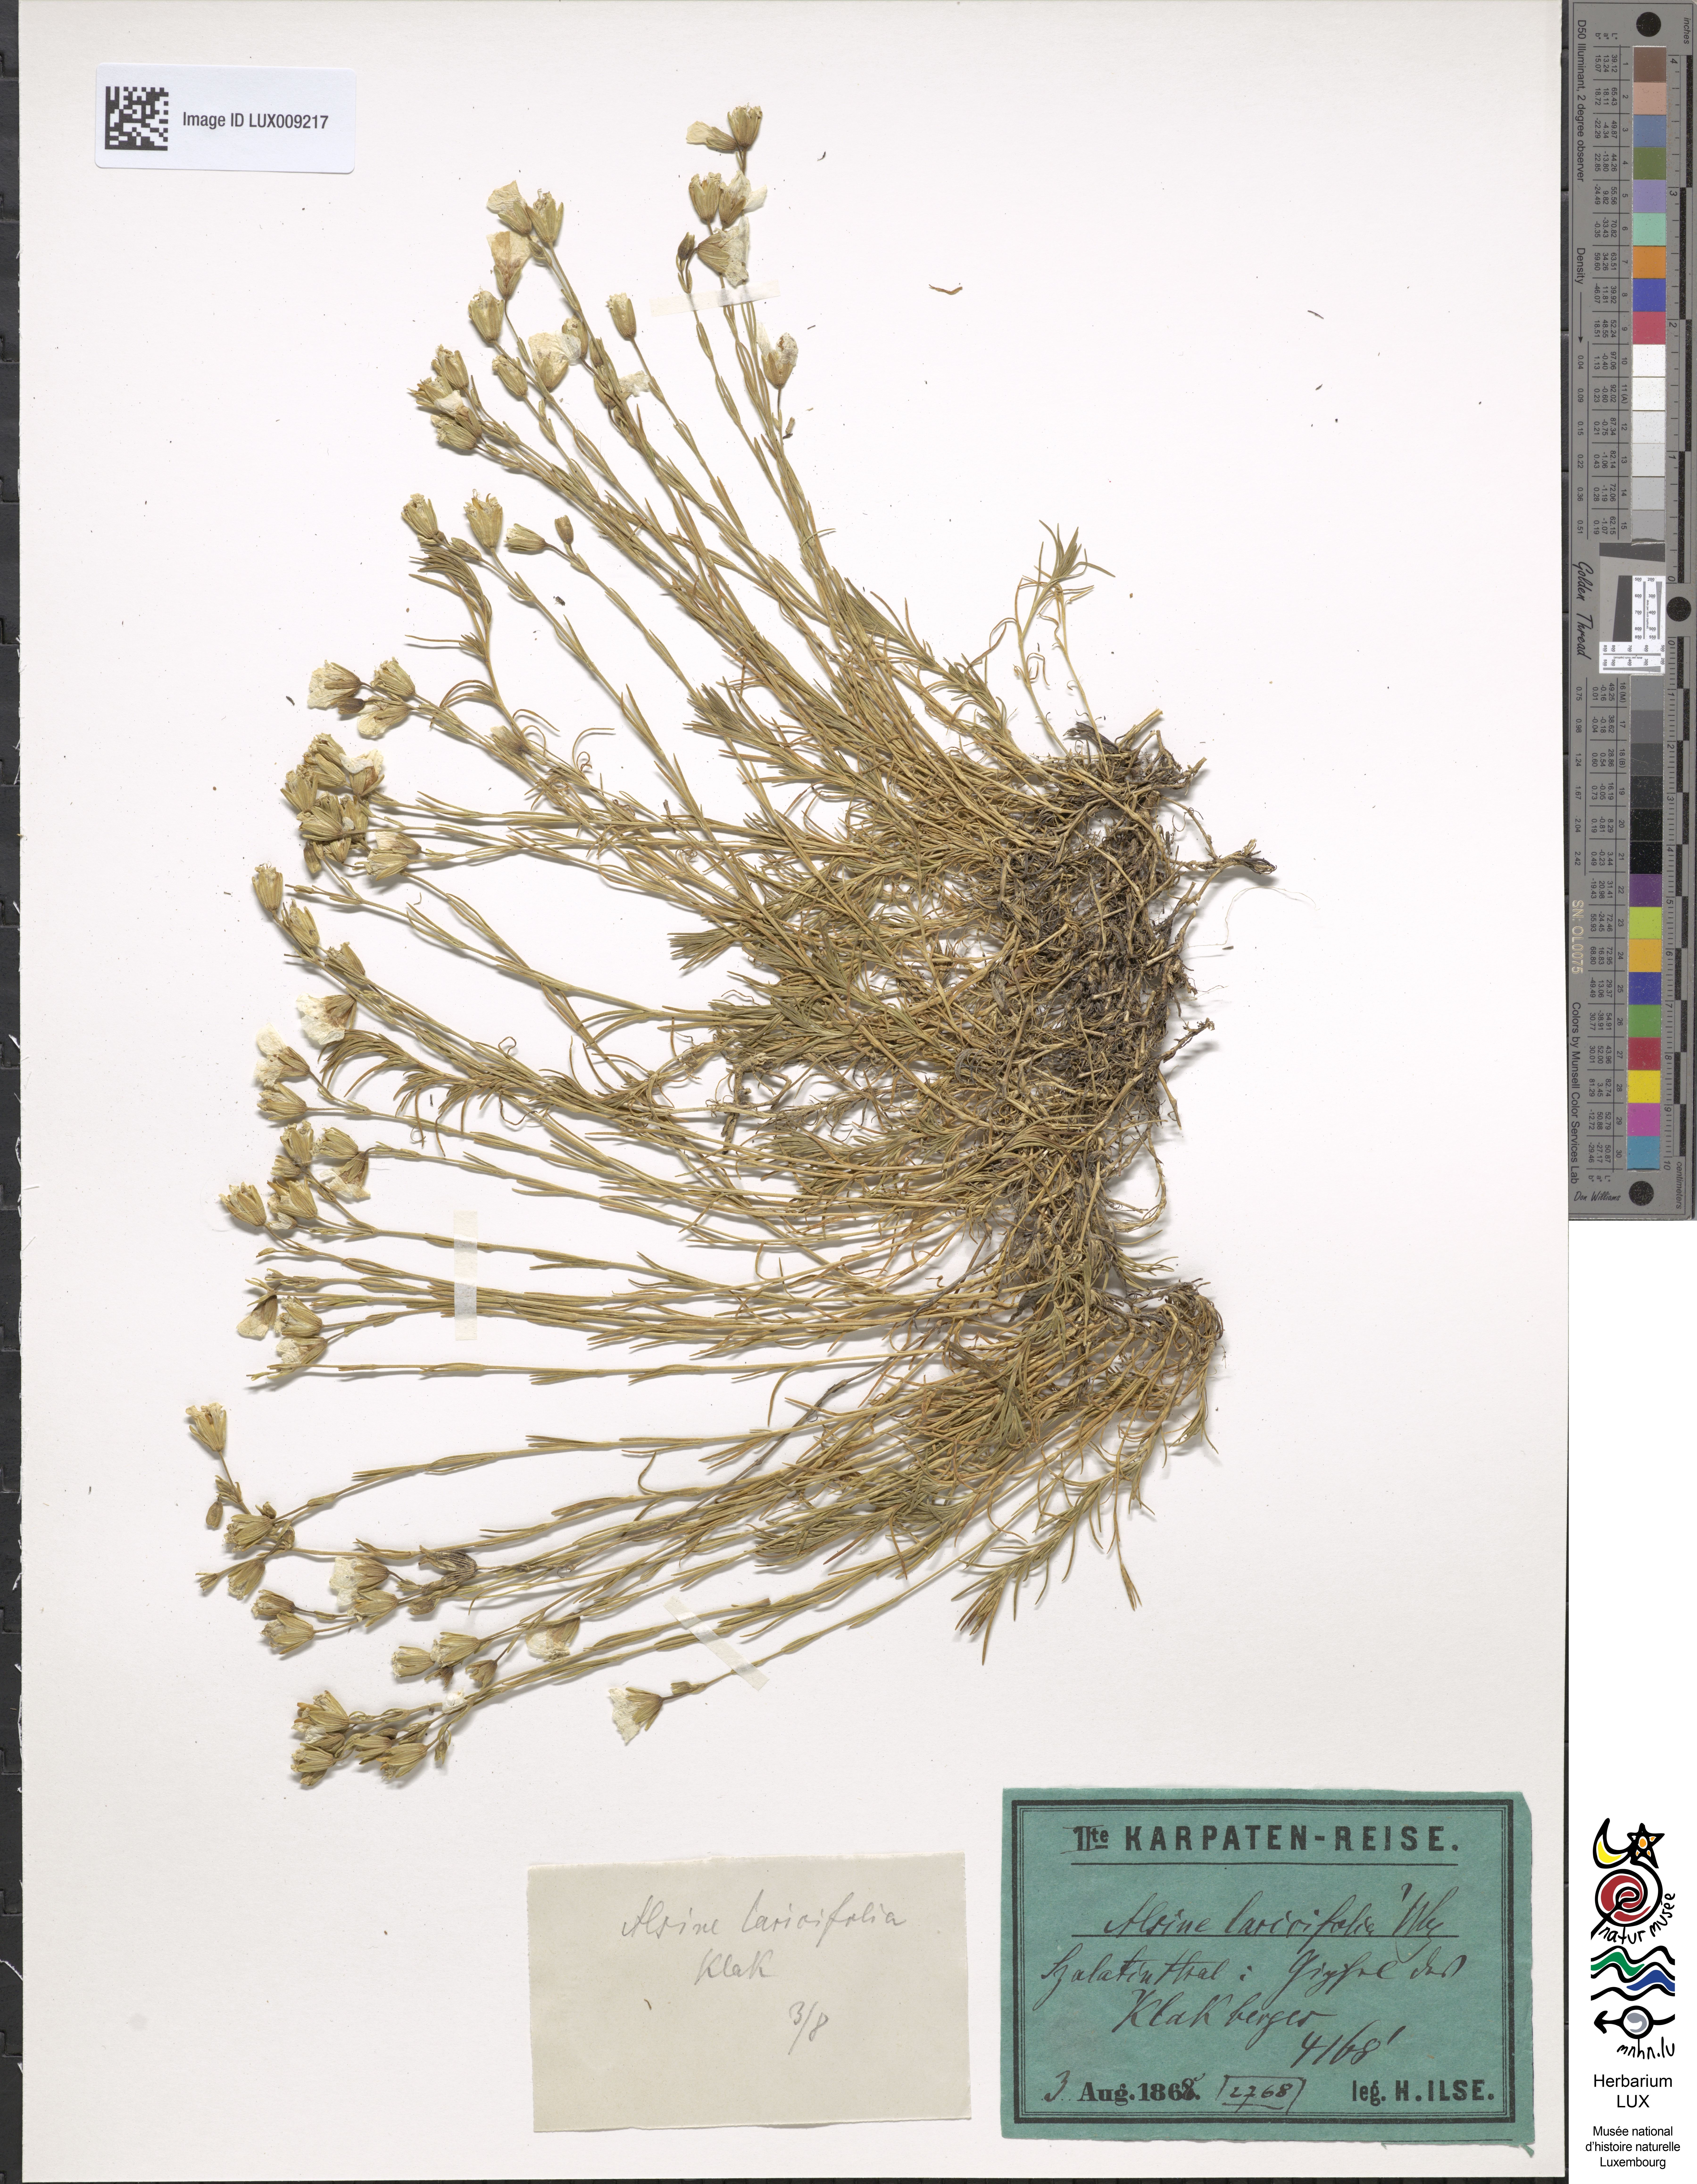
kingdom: Plantae
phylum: Tracheophyta
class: Magnoliopsida
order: Caryophyllales
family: Caryophyllaceae
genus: Cherleria
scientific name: Cherleria laricifolia
